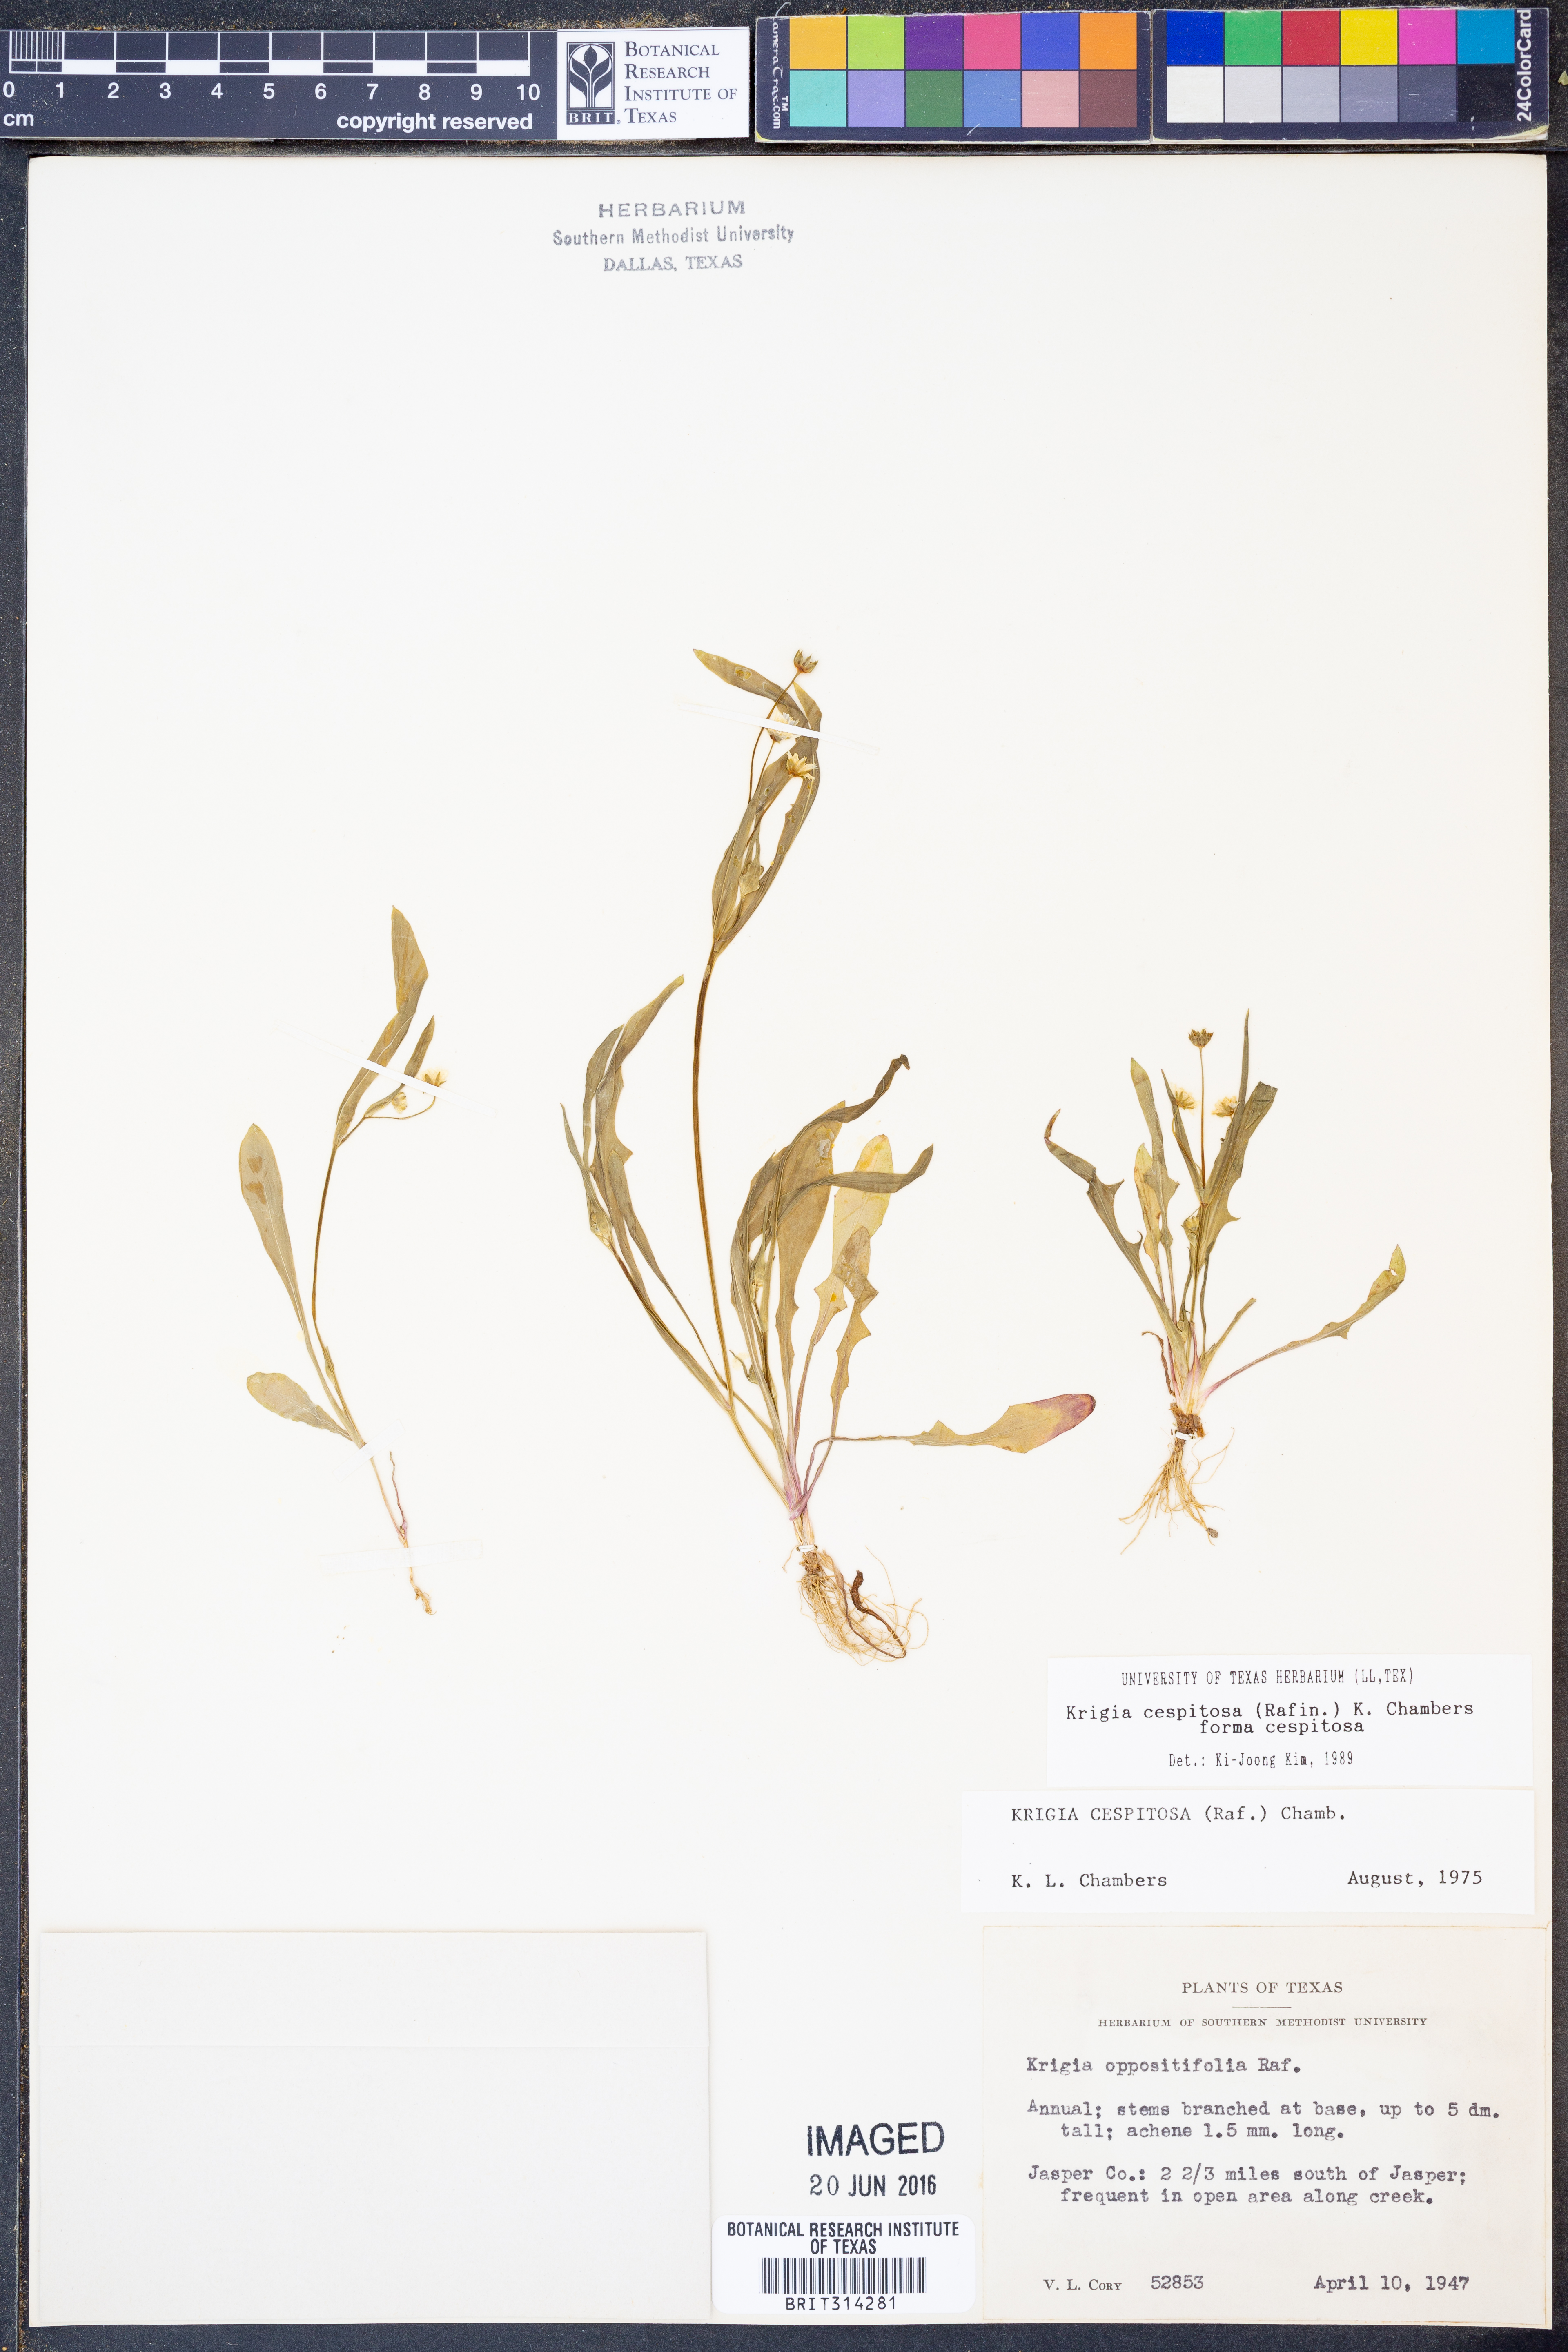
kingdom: Plantae
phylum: Tracheophyta
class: Magnoliopsida
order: Asterales
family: Asteraceae
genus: Krigia
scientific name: Krigia cespitosa
